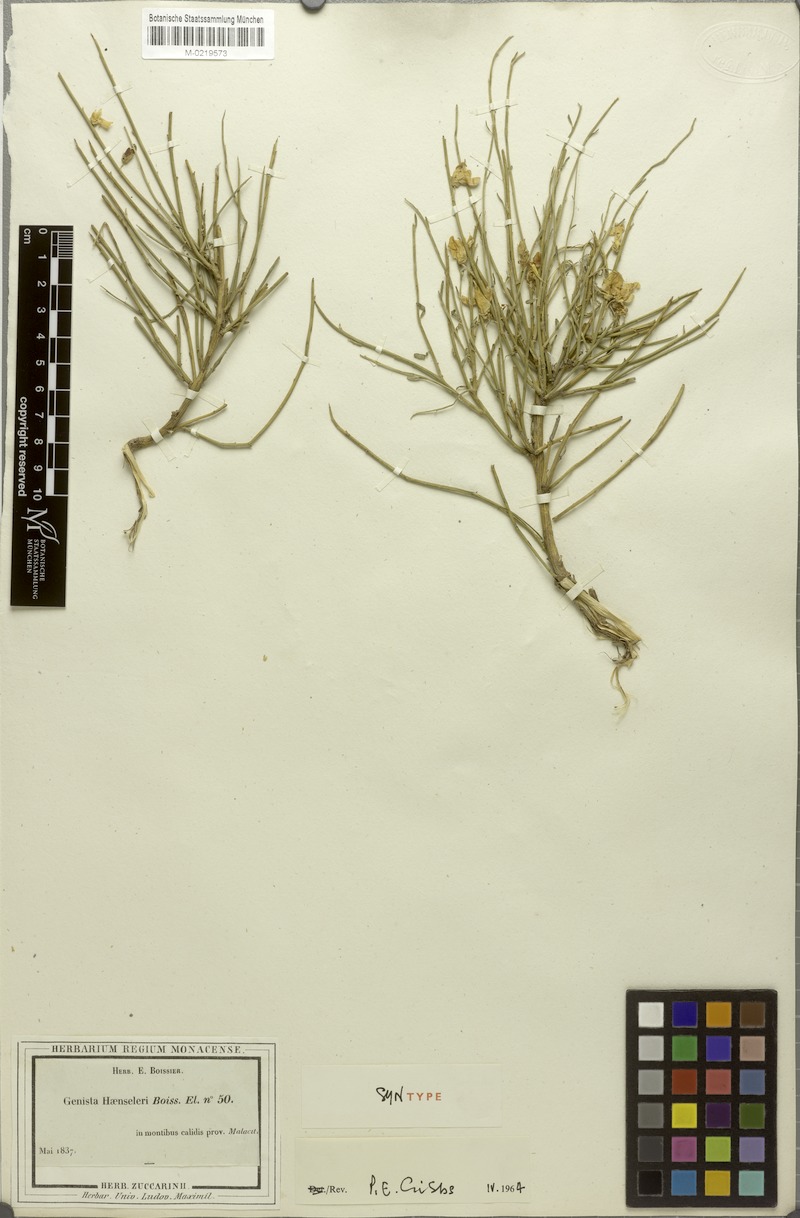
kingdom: Plantae
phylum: Tracheophyta
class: Magnoliopsida
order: Fabales
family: Fabaceae
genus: Genista
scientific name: Genista haenseleri
